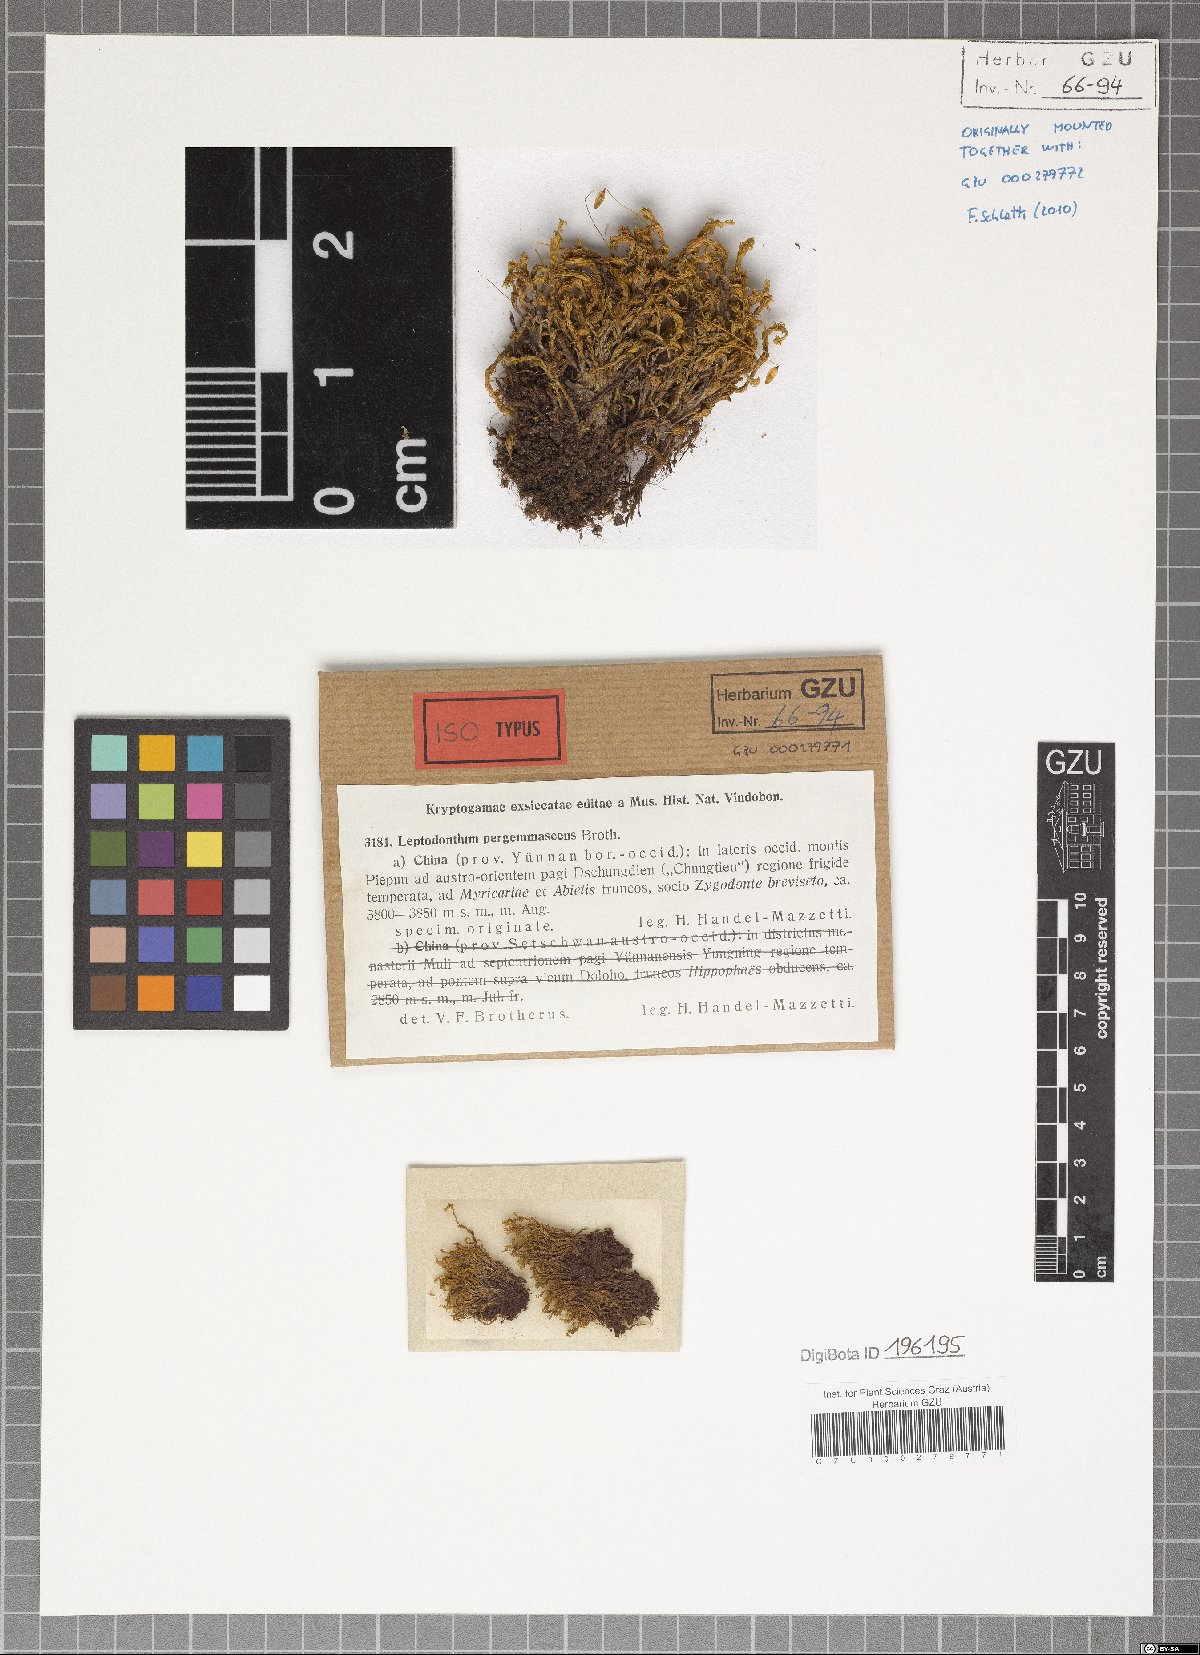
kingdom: Plantae
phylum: Bryophyta
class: Bryopsida
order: Pottiales
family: Pottiaceae
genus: Leptodontium
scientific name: Leptodontium flexifolium
